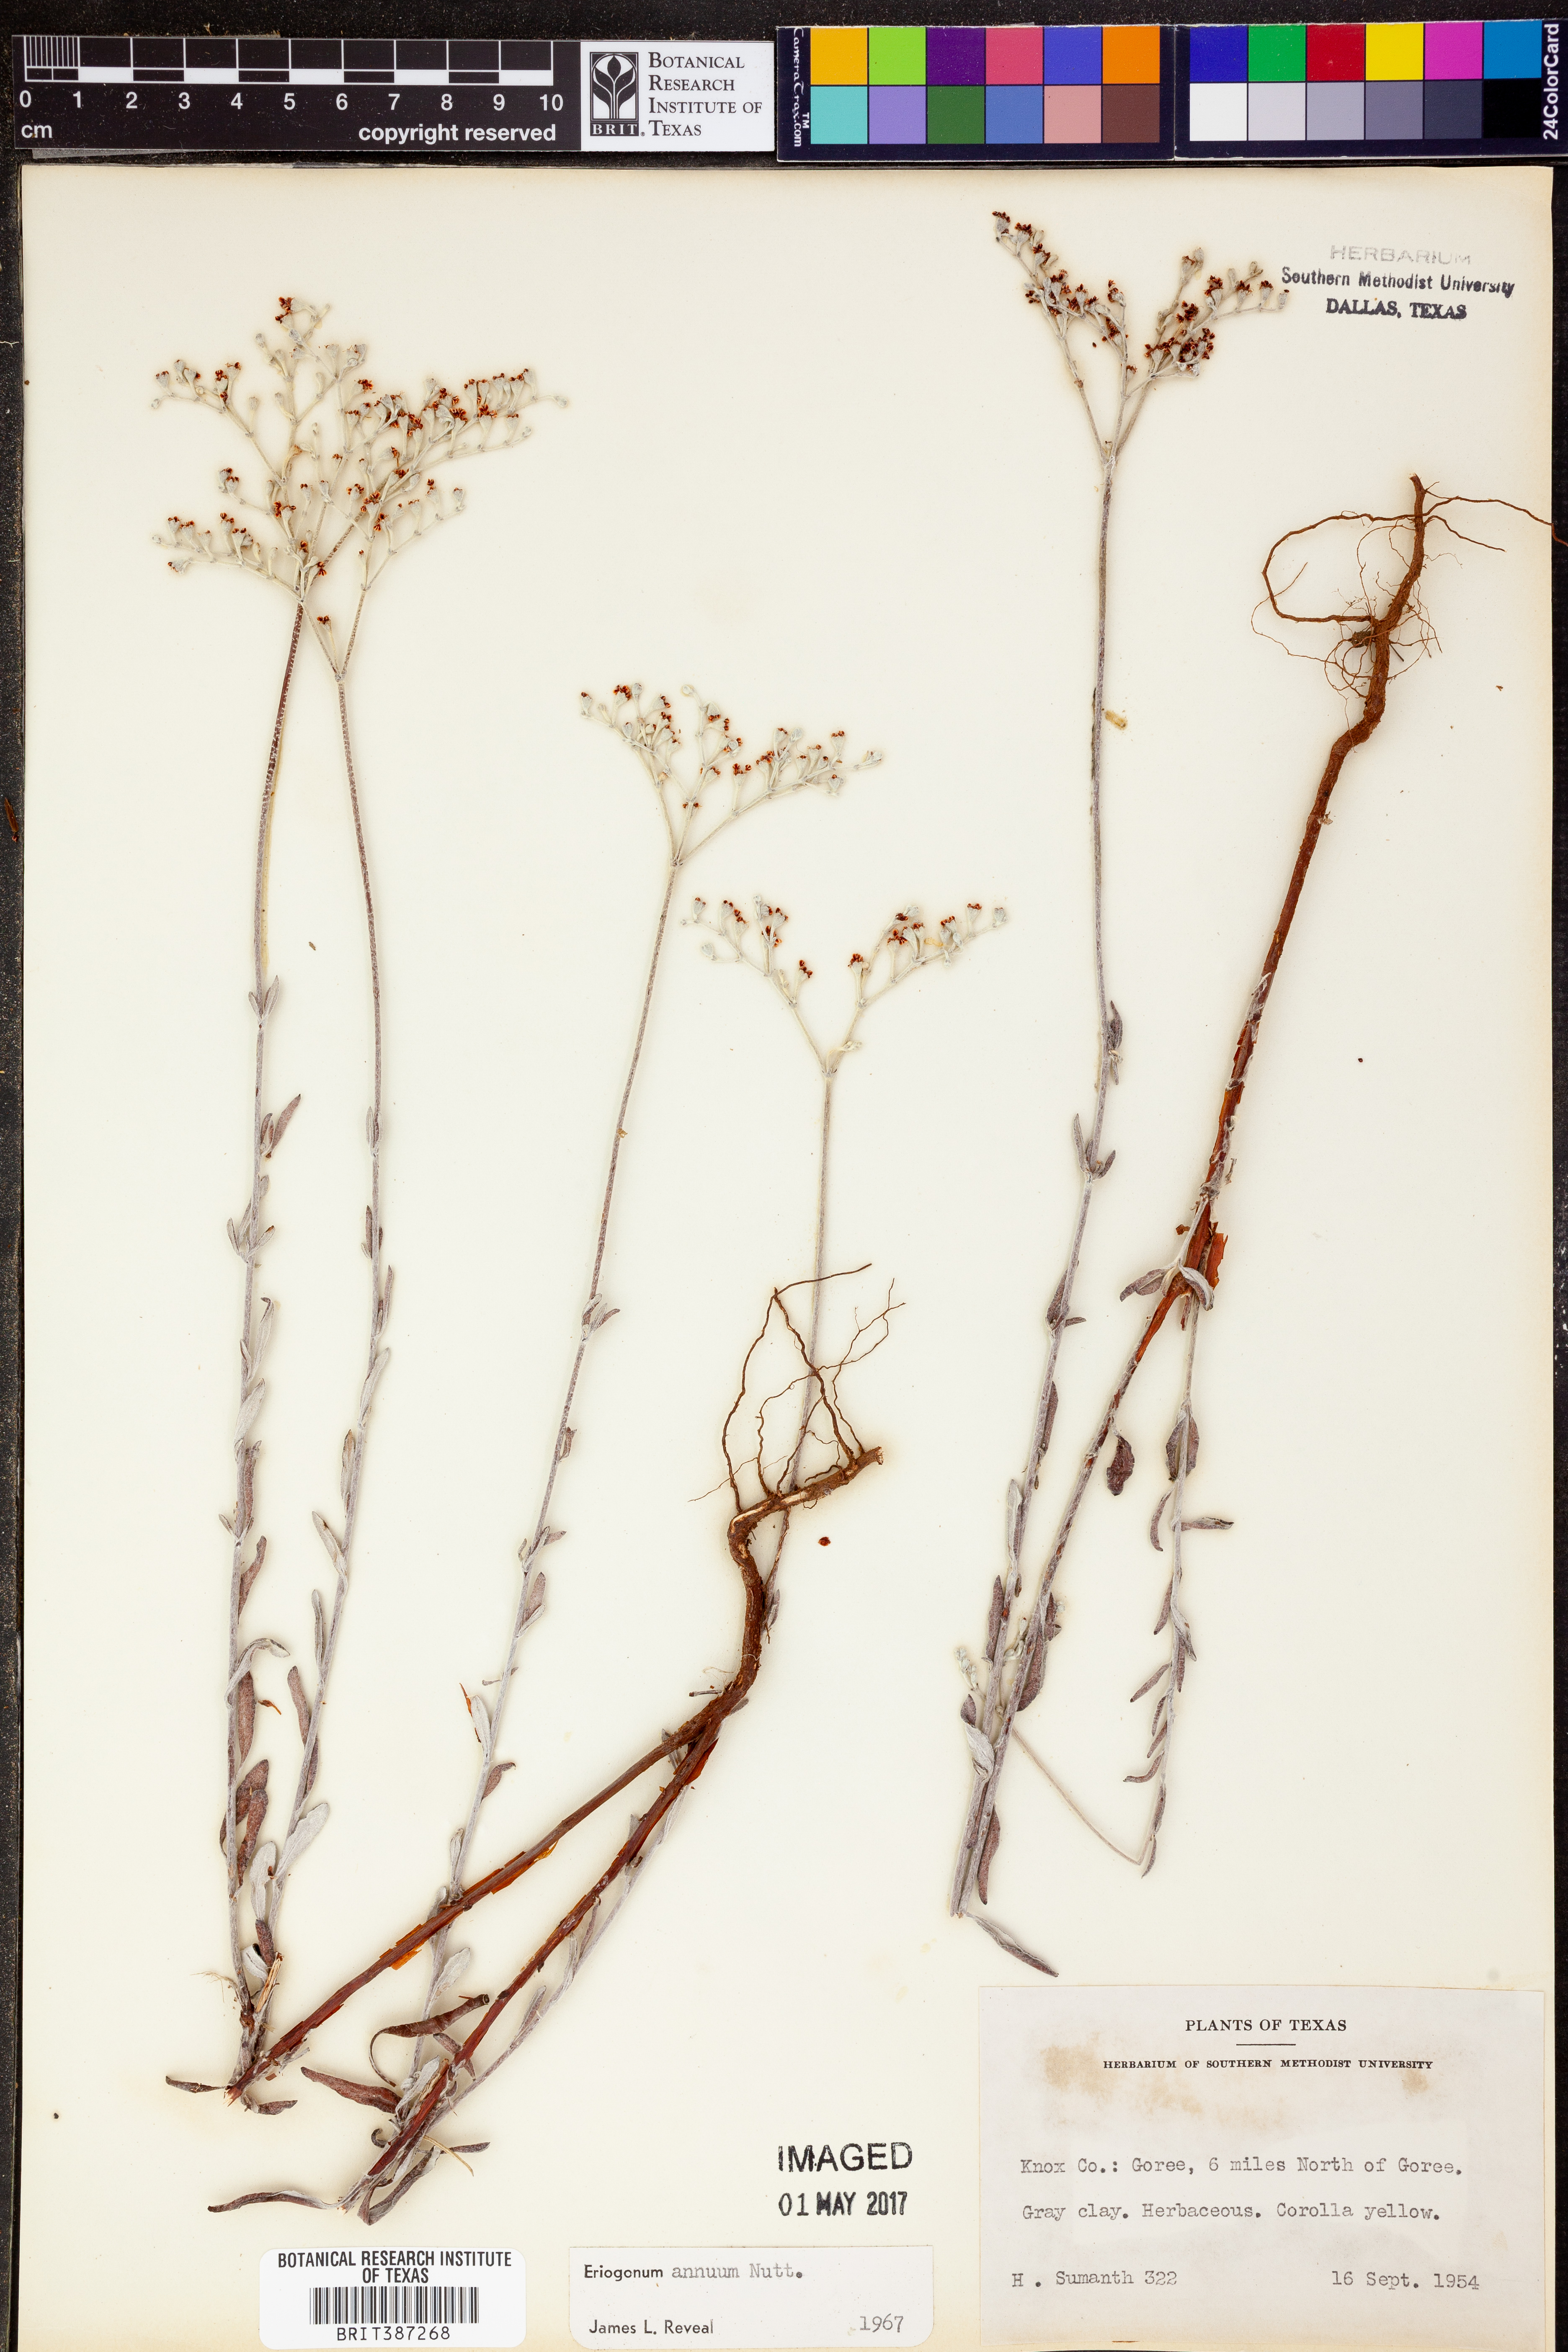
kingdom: Plantae
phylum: Tracheophyta
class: Magnoliopsida
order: Caryophyllales
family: Polygonaceae
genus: Eriogonum
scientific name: Eriogonum annuum
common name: Annual wild buckwheat
